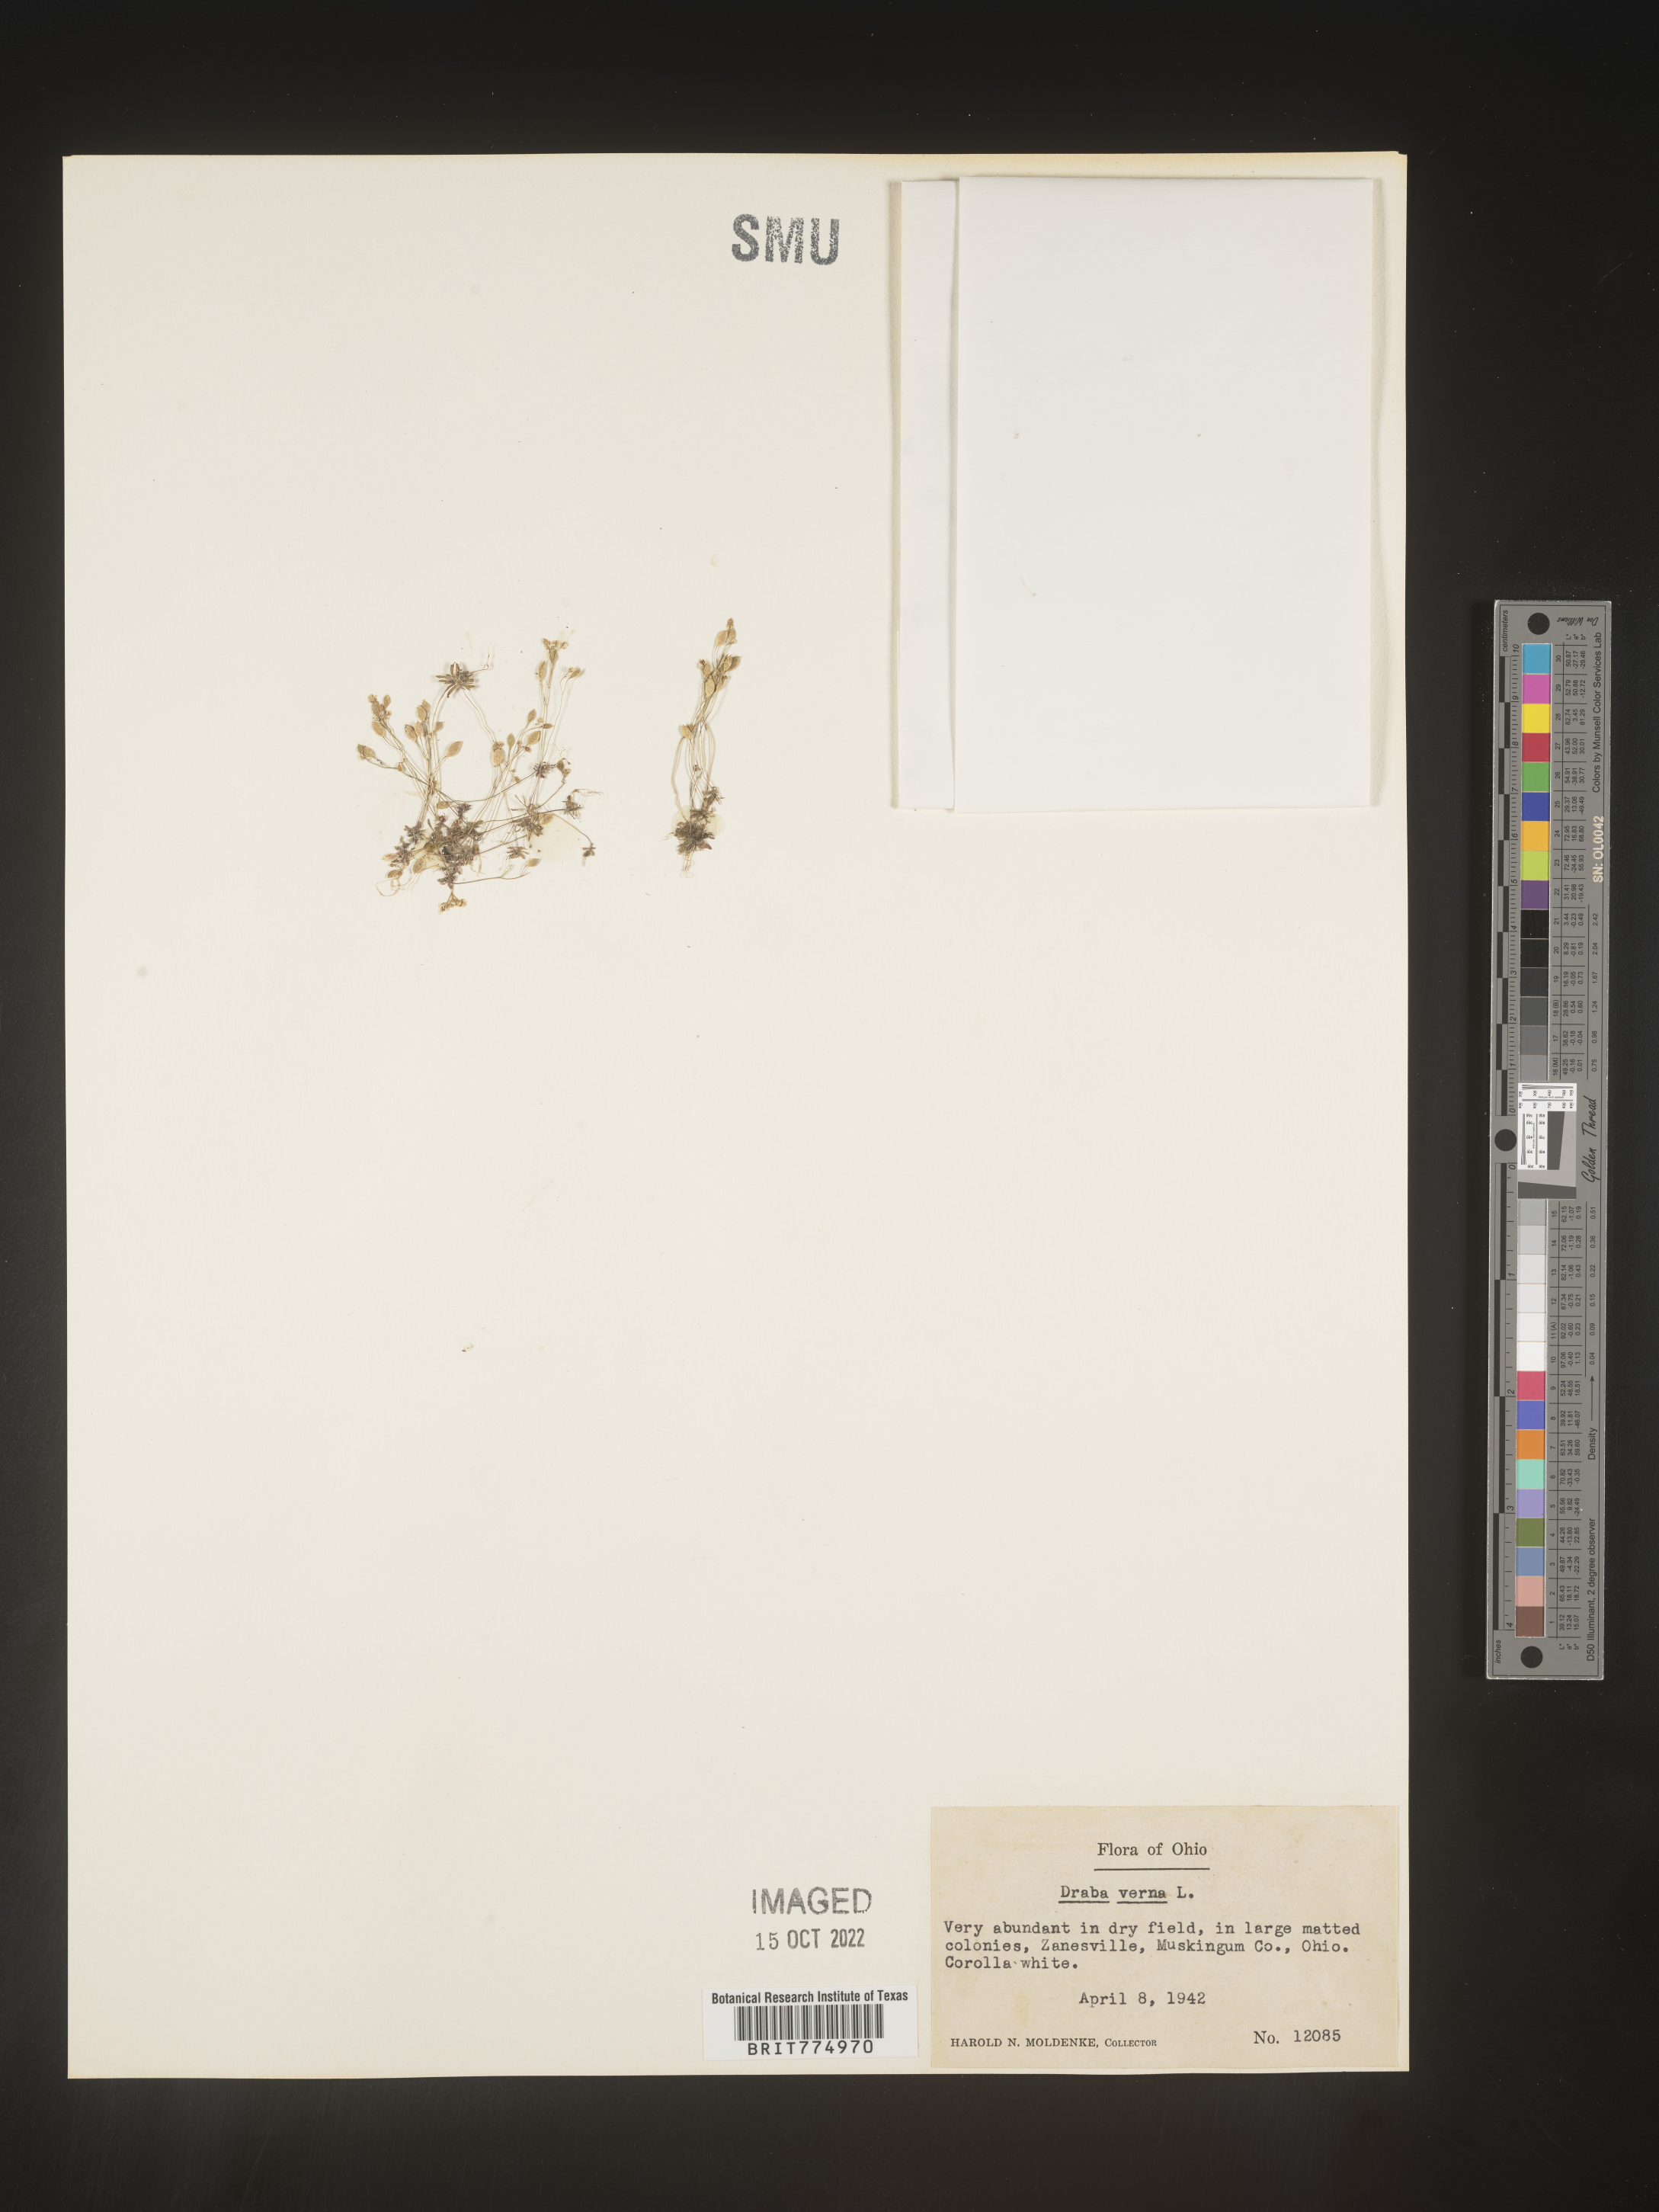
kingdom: Plantae
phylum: Tracheophyta
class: Magnoliopsida
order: Brassicales
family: Brassicaceae
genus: Draba
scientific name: Draba verna
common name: Spring draba
